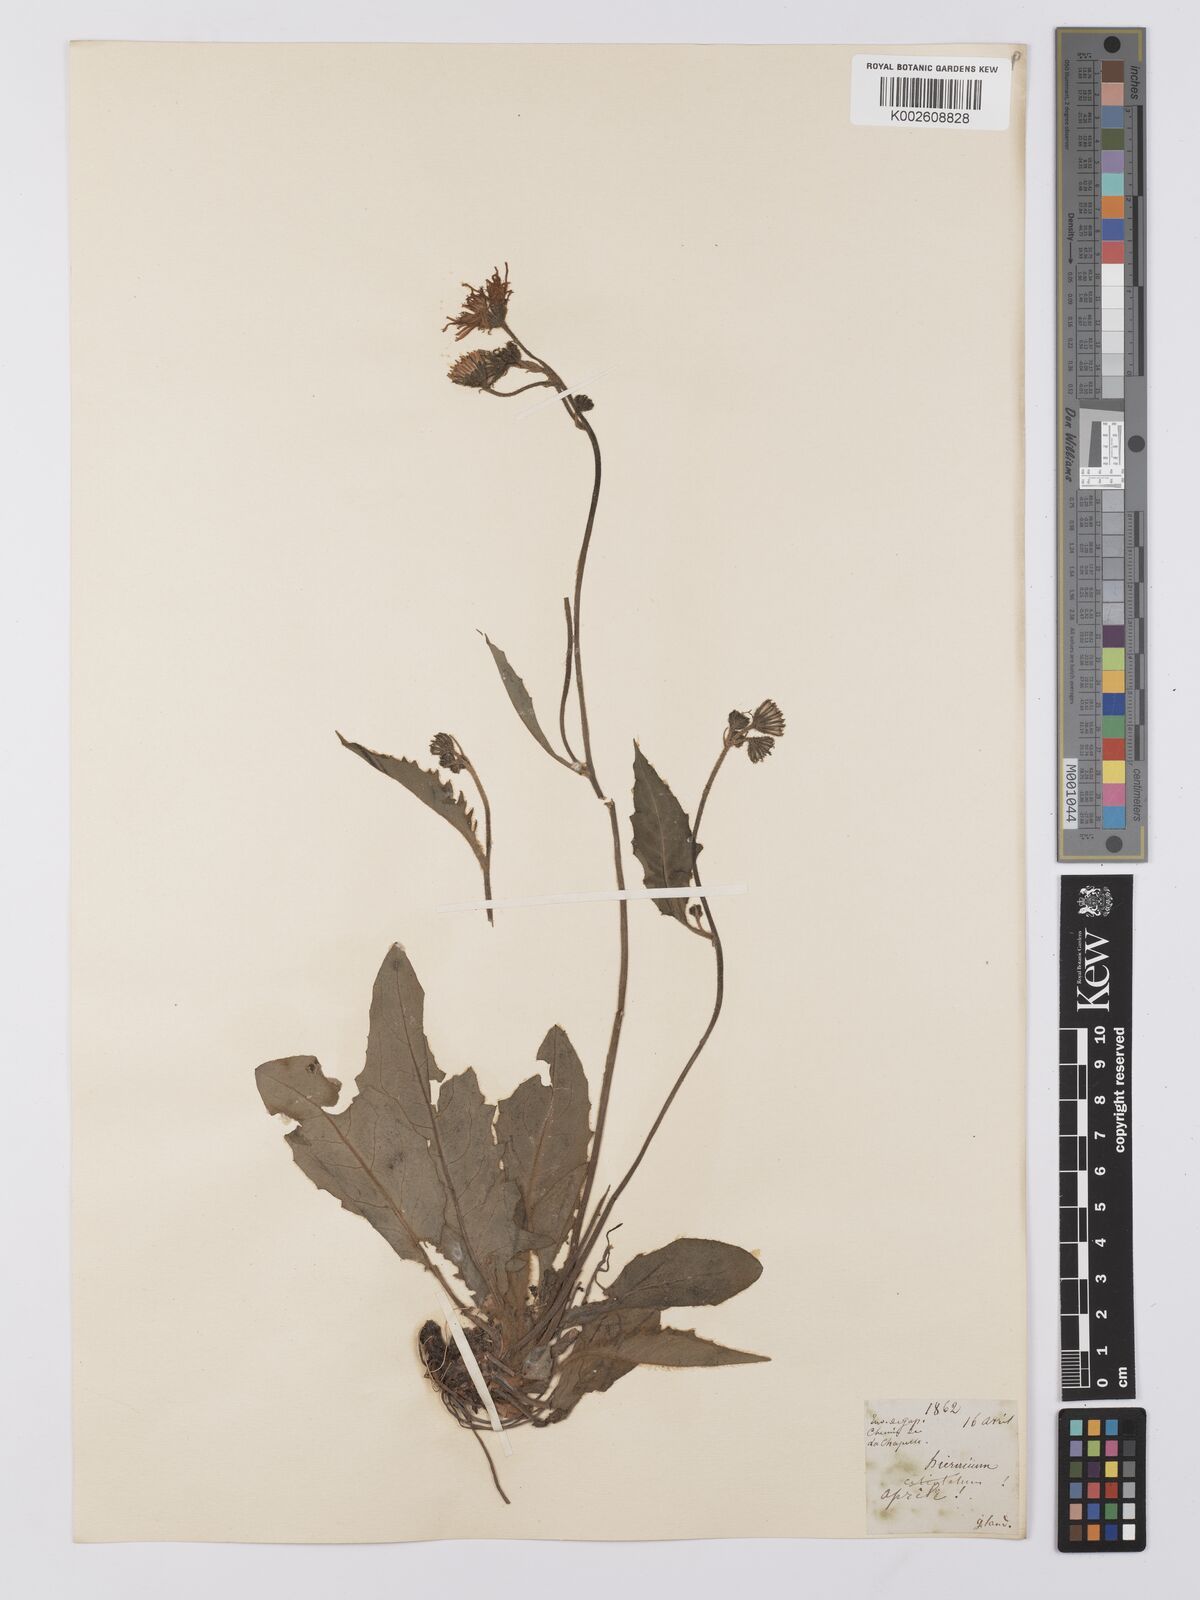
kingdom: Plantae
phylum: Tracheophyta
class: Magnoliopsida
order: Asterales
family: Asteraceae
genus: Hieracium
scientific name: Hieracium
